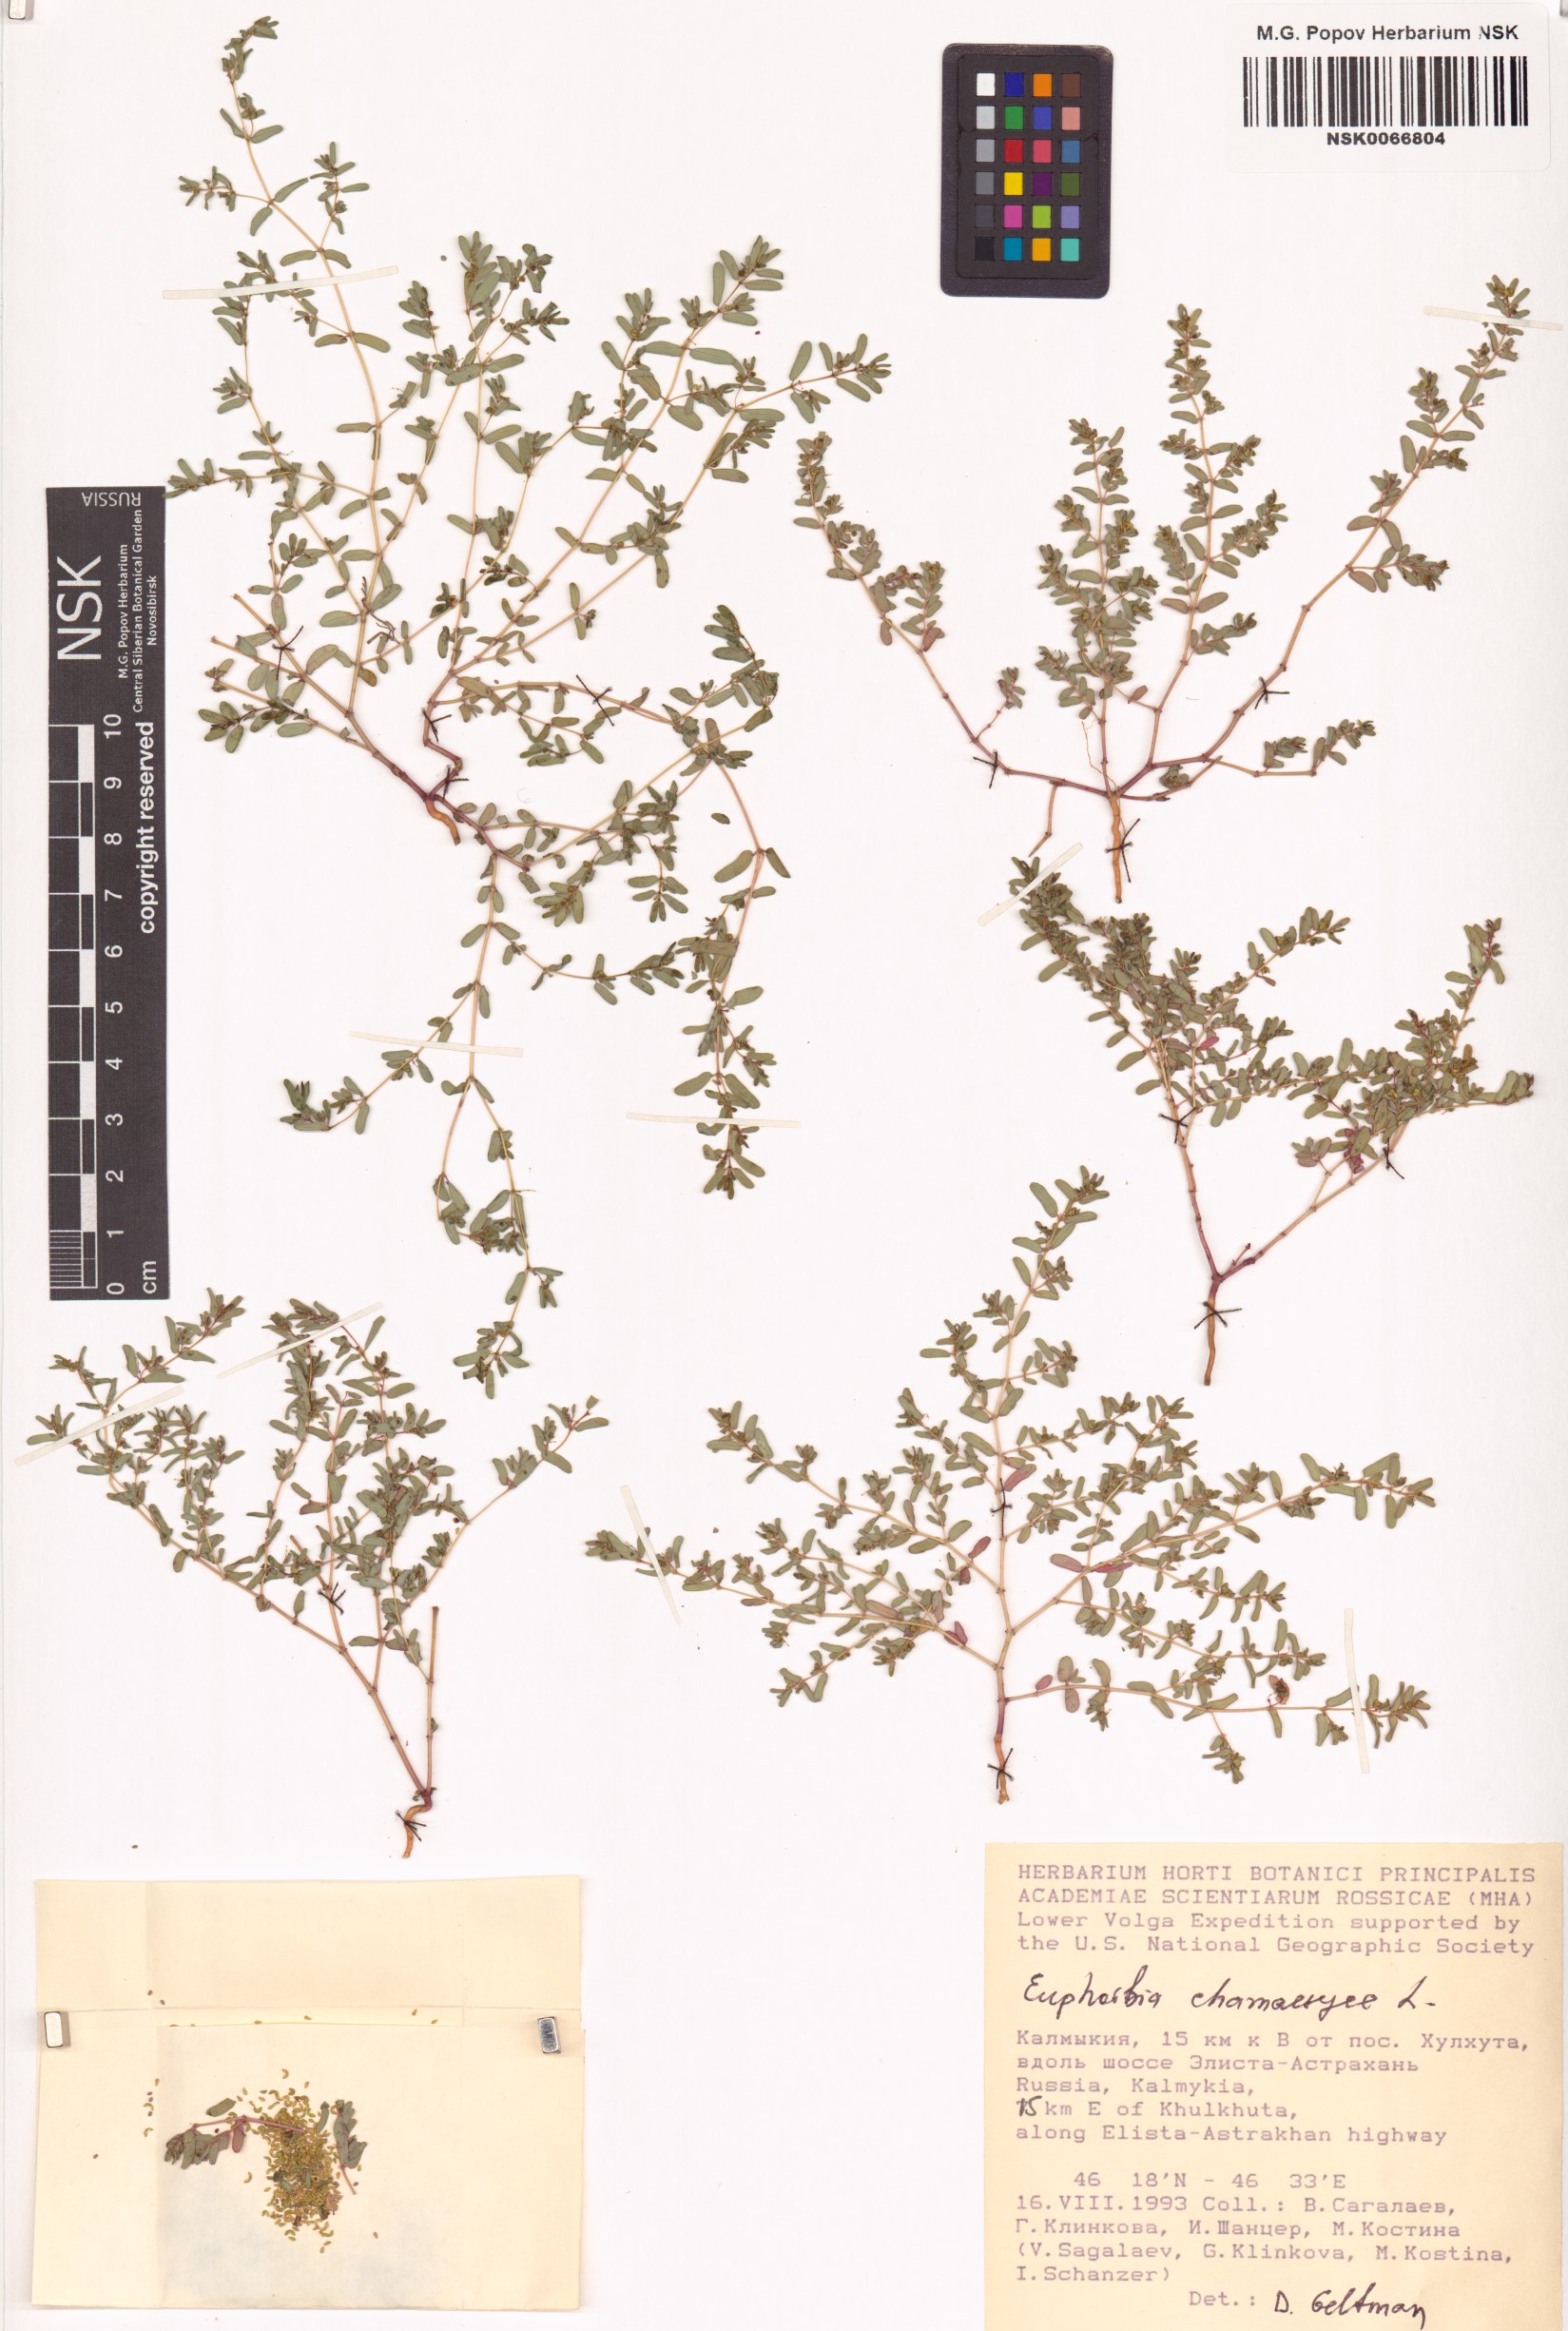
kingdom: Plantae
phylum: Tracheophyta
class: Magnoliopsida
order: Malpighiales
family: Euphorbiaceae
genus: Euphorbia
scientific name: Euphorbia chamaesyce
